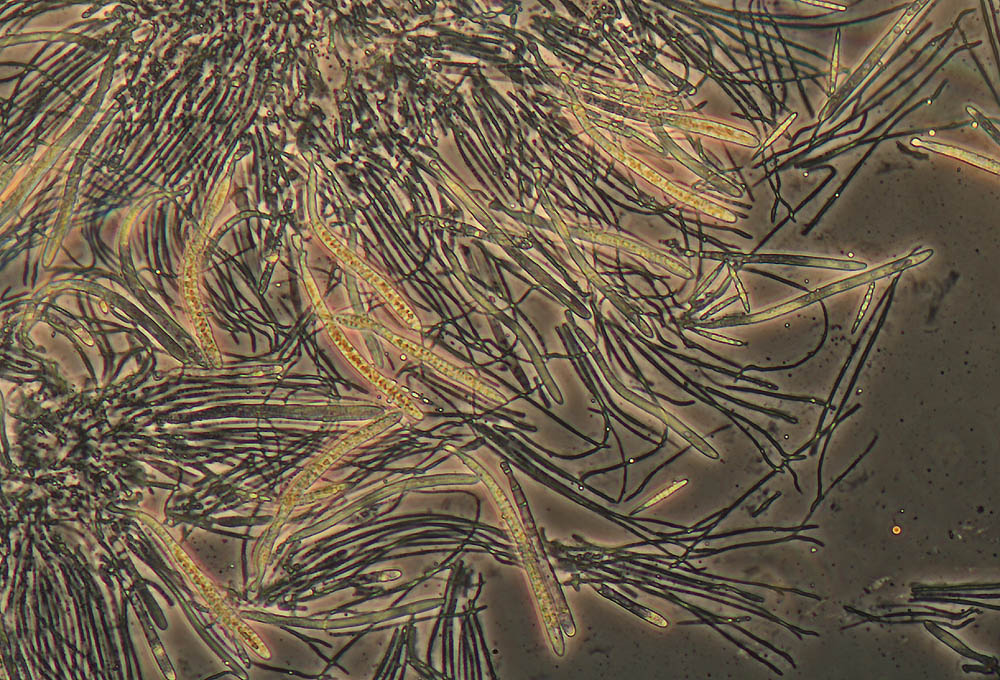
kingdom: Fungi
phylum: Ascomycota
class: Leotiomycetes
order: Helotiales
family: Godroniaceae
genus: Godronia
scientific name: Godronia ribis
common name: ribs-urneskive
